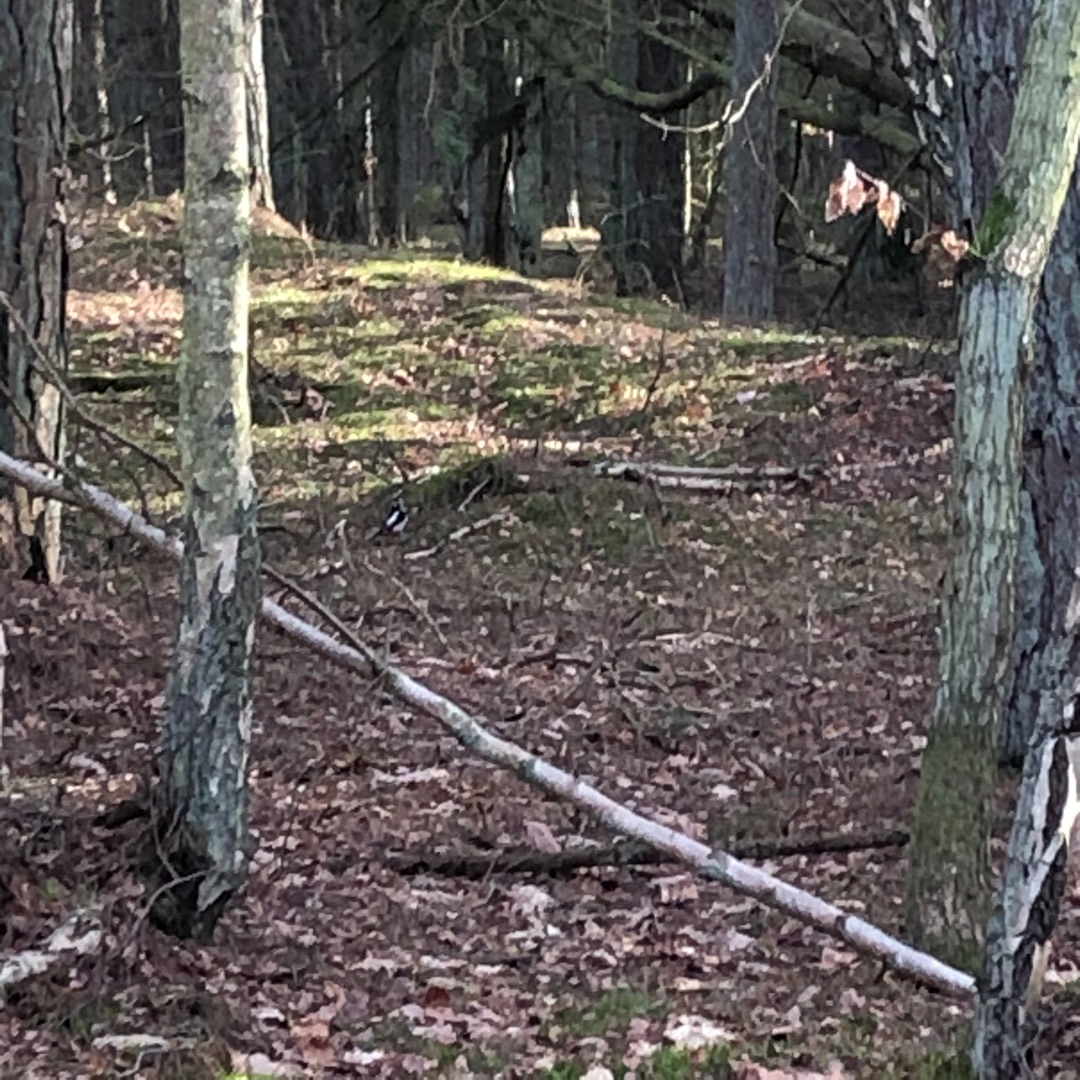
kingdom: Animalia
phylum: Chordata
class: Aves
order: Piciformes
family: Picidae
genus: Dendrocopos
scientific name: Dendrocopos major
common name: Stor flagspætte
